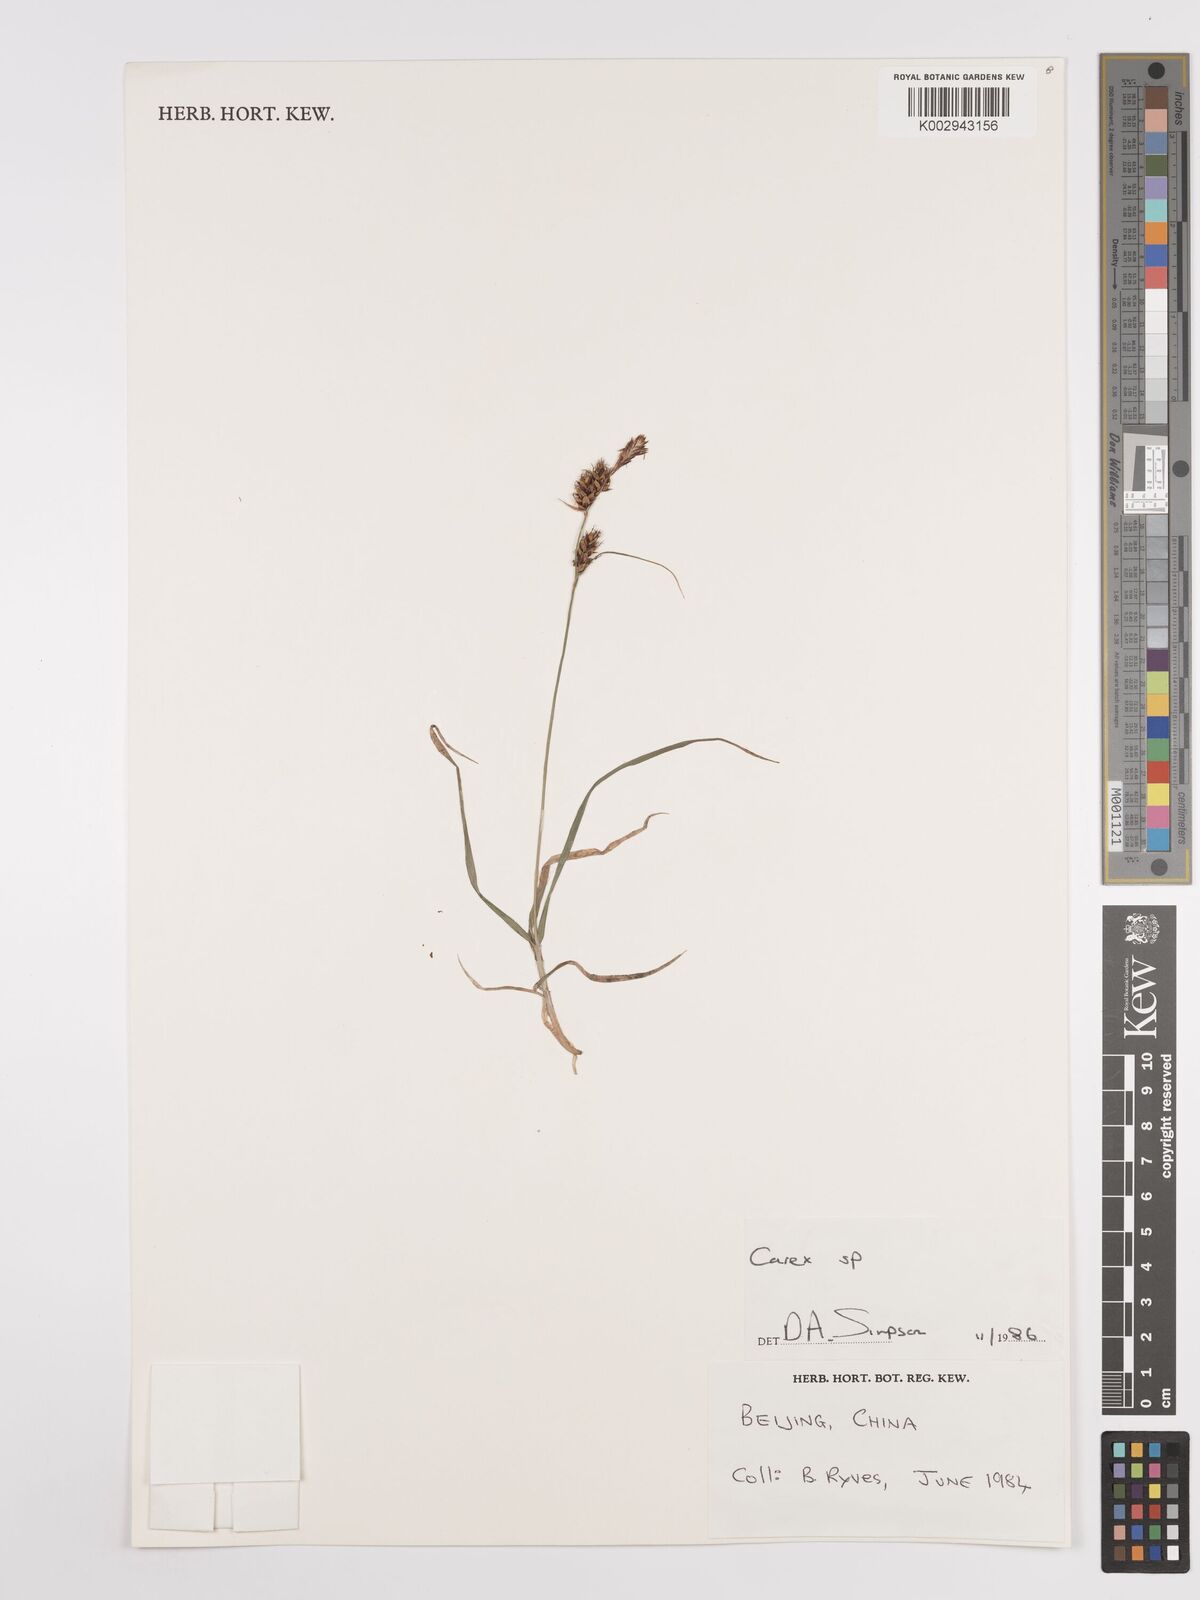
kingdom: Plantae
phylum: Tracheophyta
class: Liliopsida
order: Poales
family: Cyperaceae
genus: Carex
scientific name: Carex
